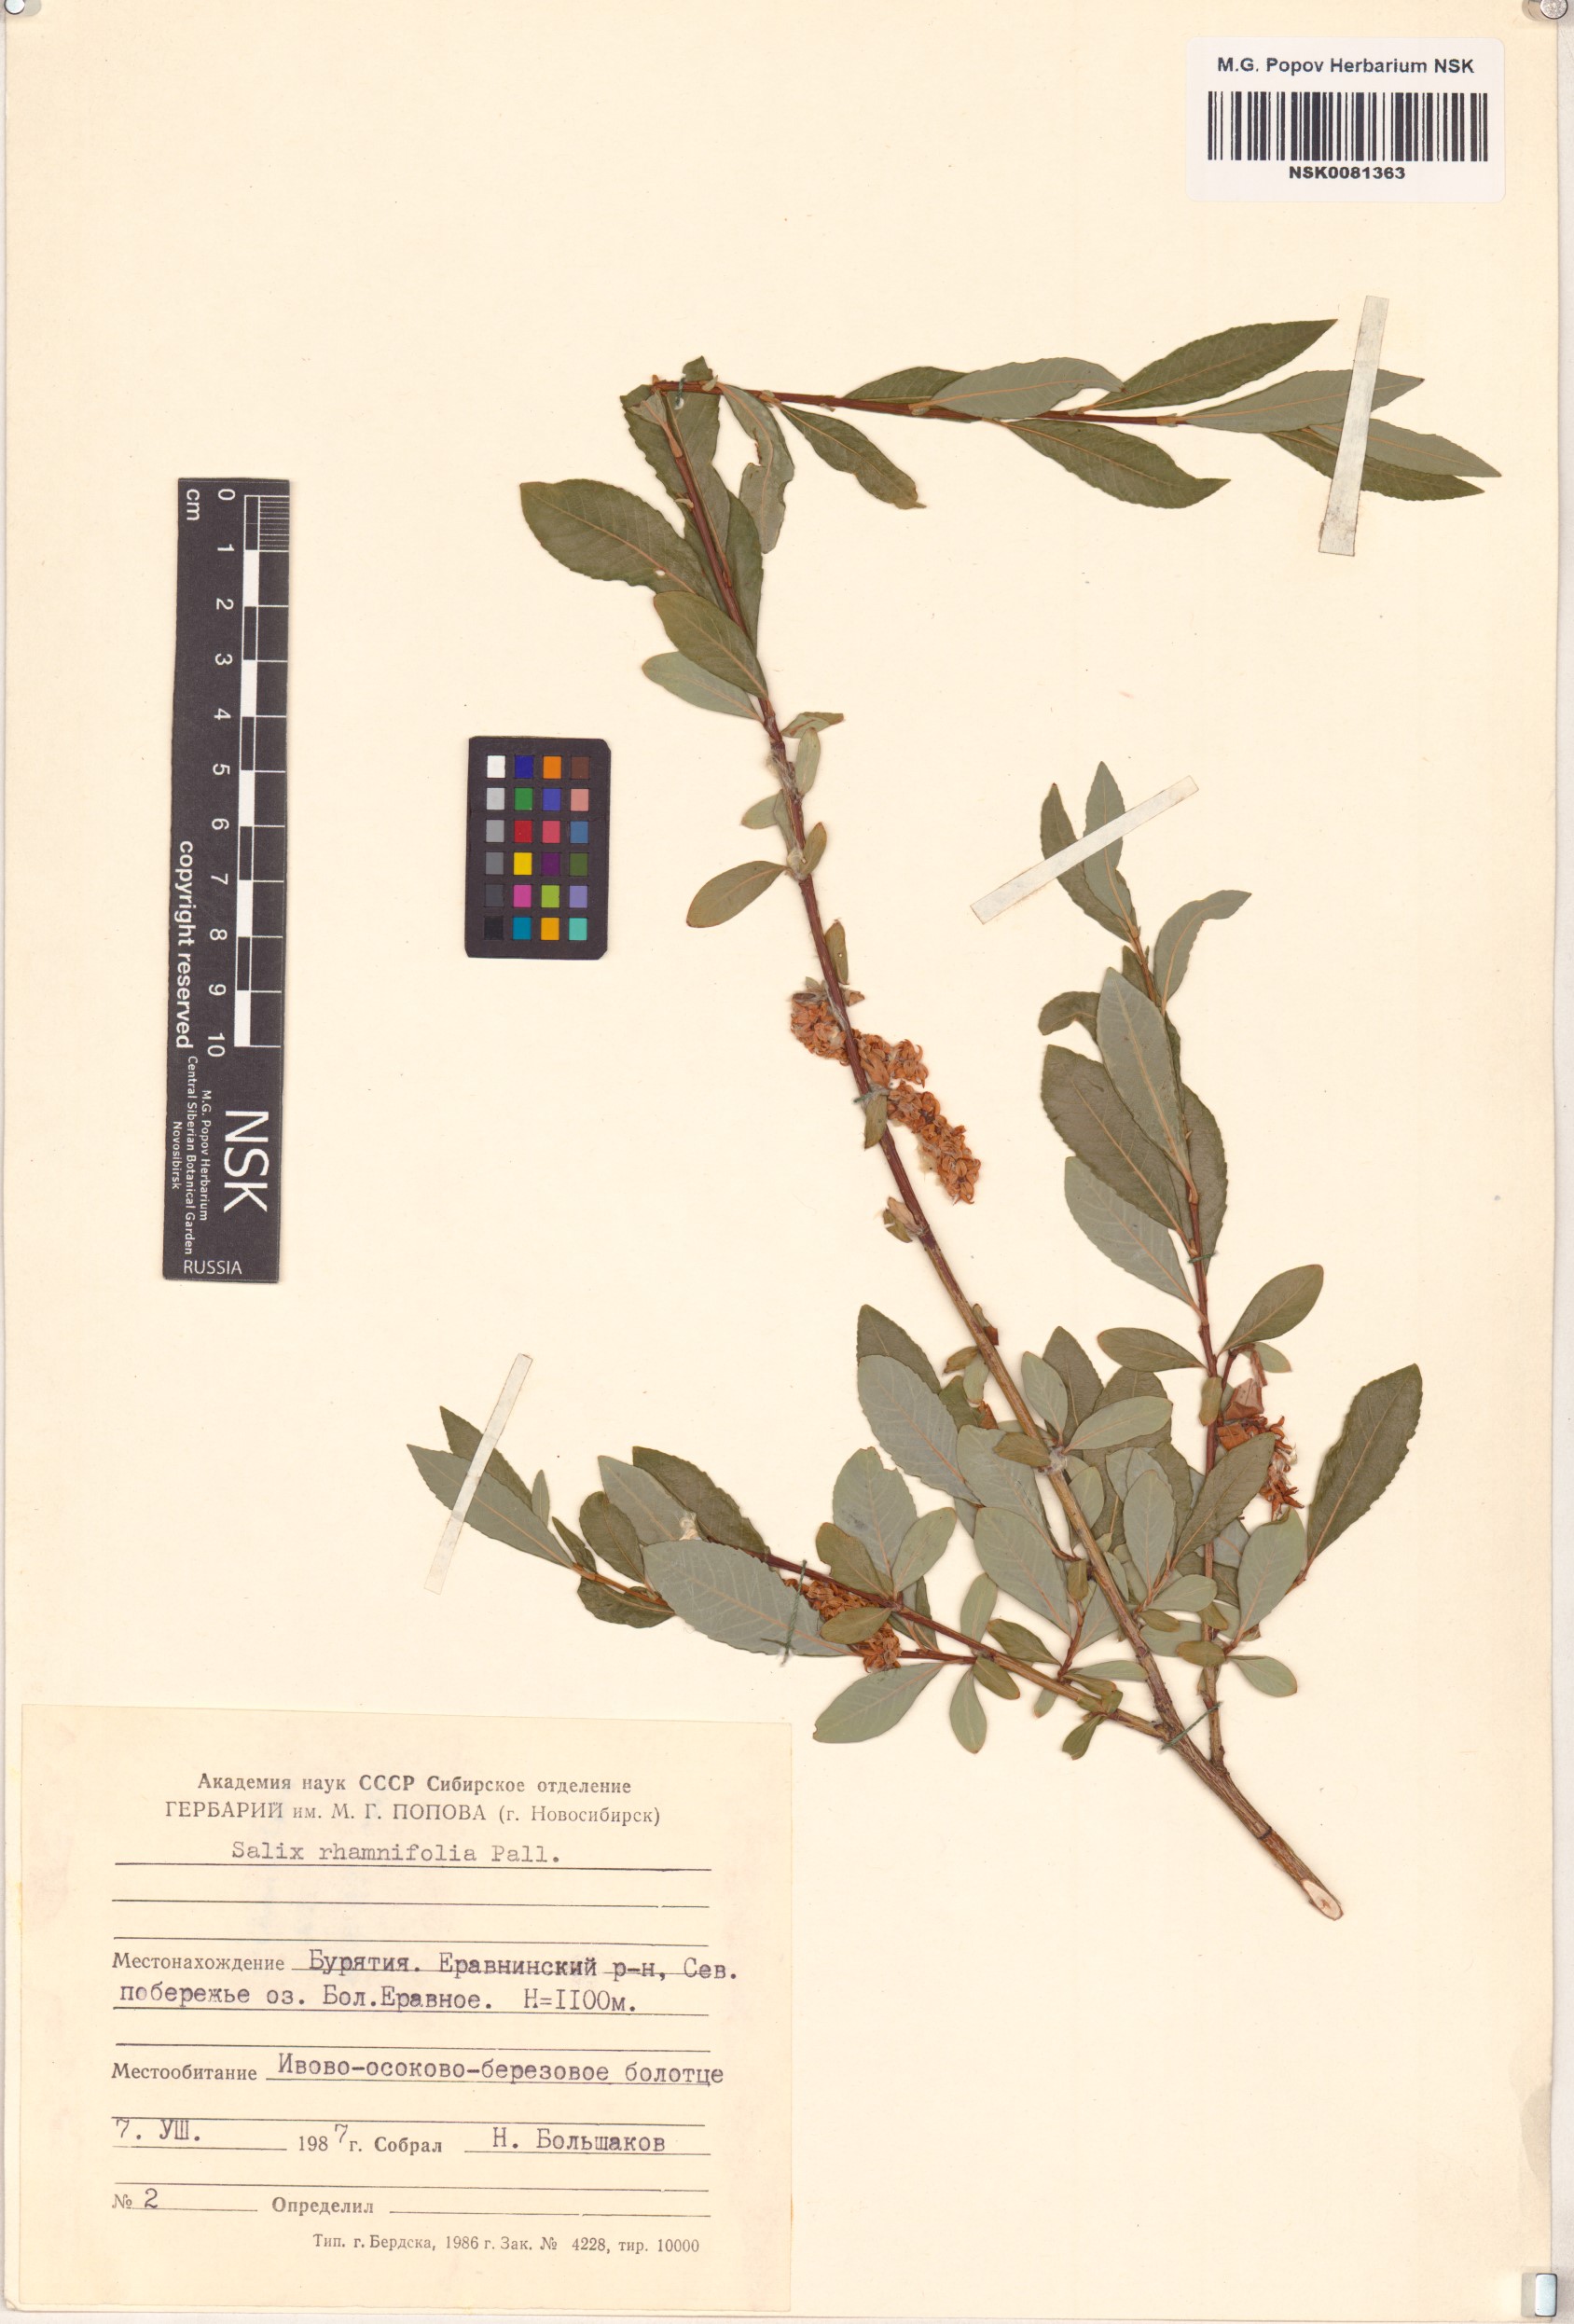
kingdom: Plantae
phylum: Tracheophyta
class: Magnoliopsida
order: Malpighiales
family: Salicaceae
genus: Salix
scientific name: Salix rhamnifolia
